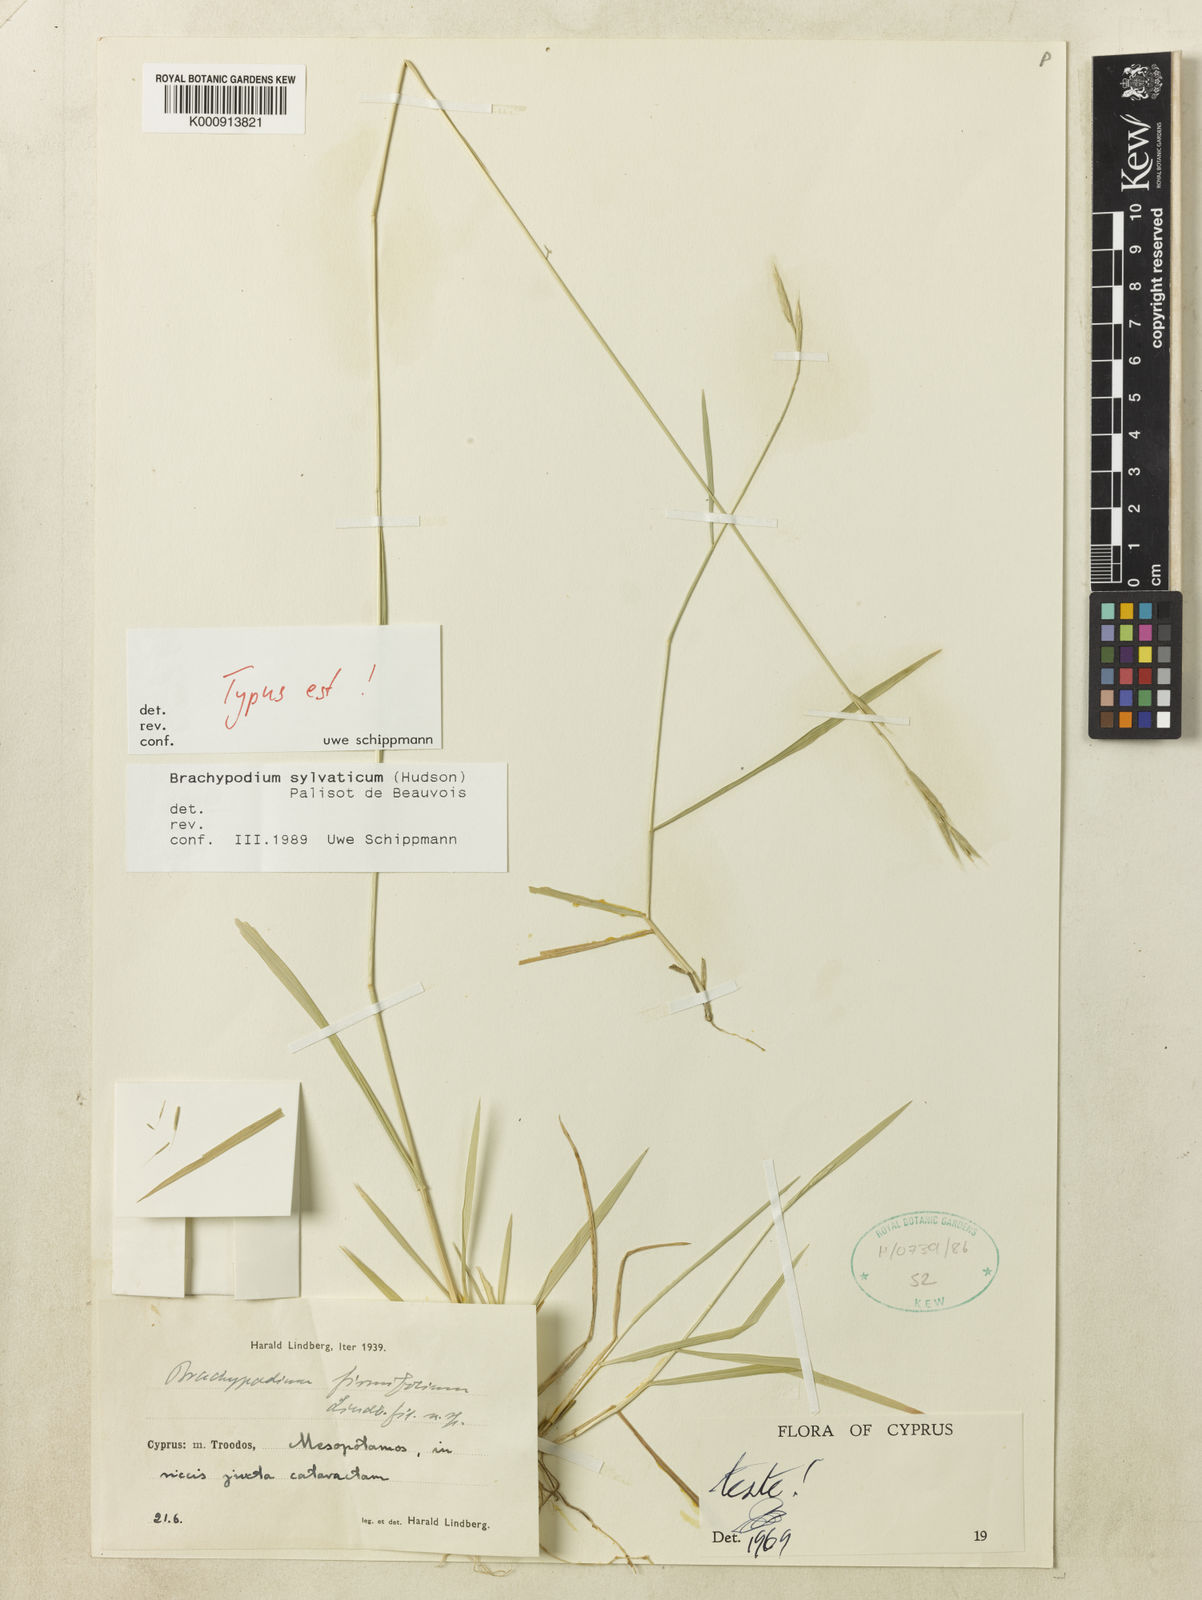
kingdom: Plantae
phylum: Tracheophyta
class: Liliopsida
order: Poales
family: Poaceae
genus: Brachypodium
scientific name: Brachypodium glaucovirens
